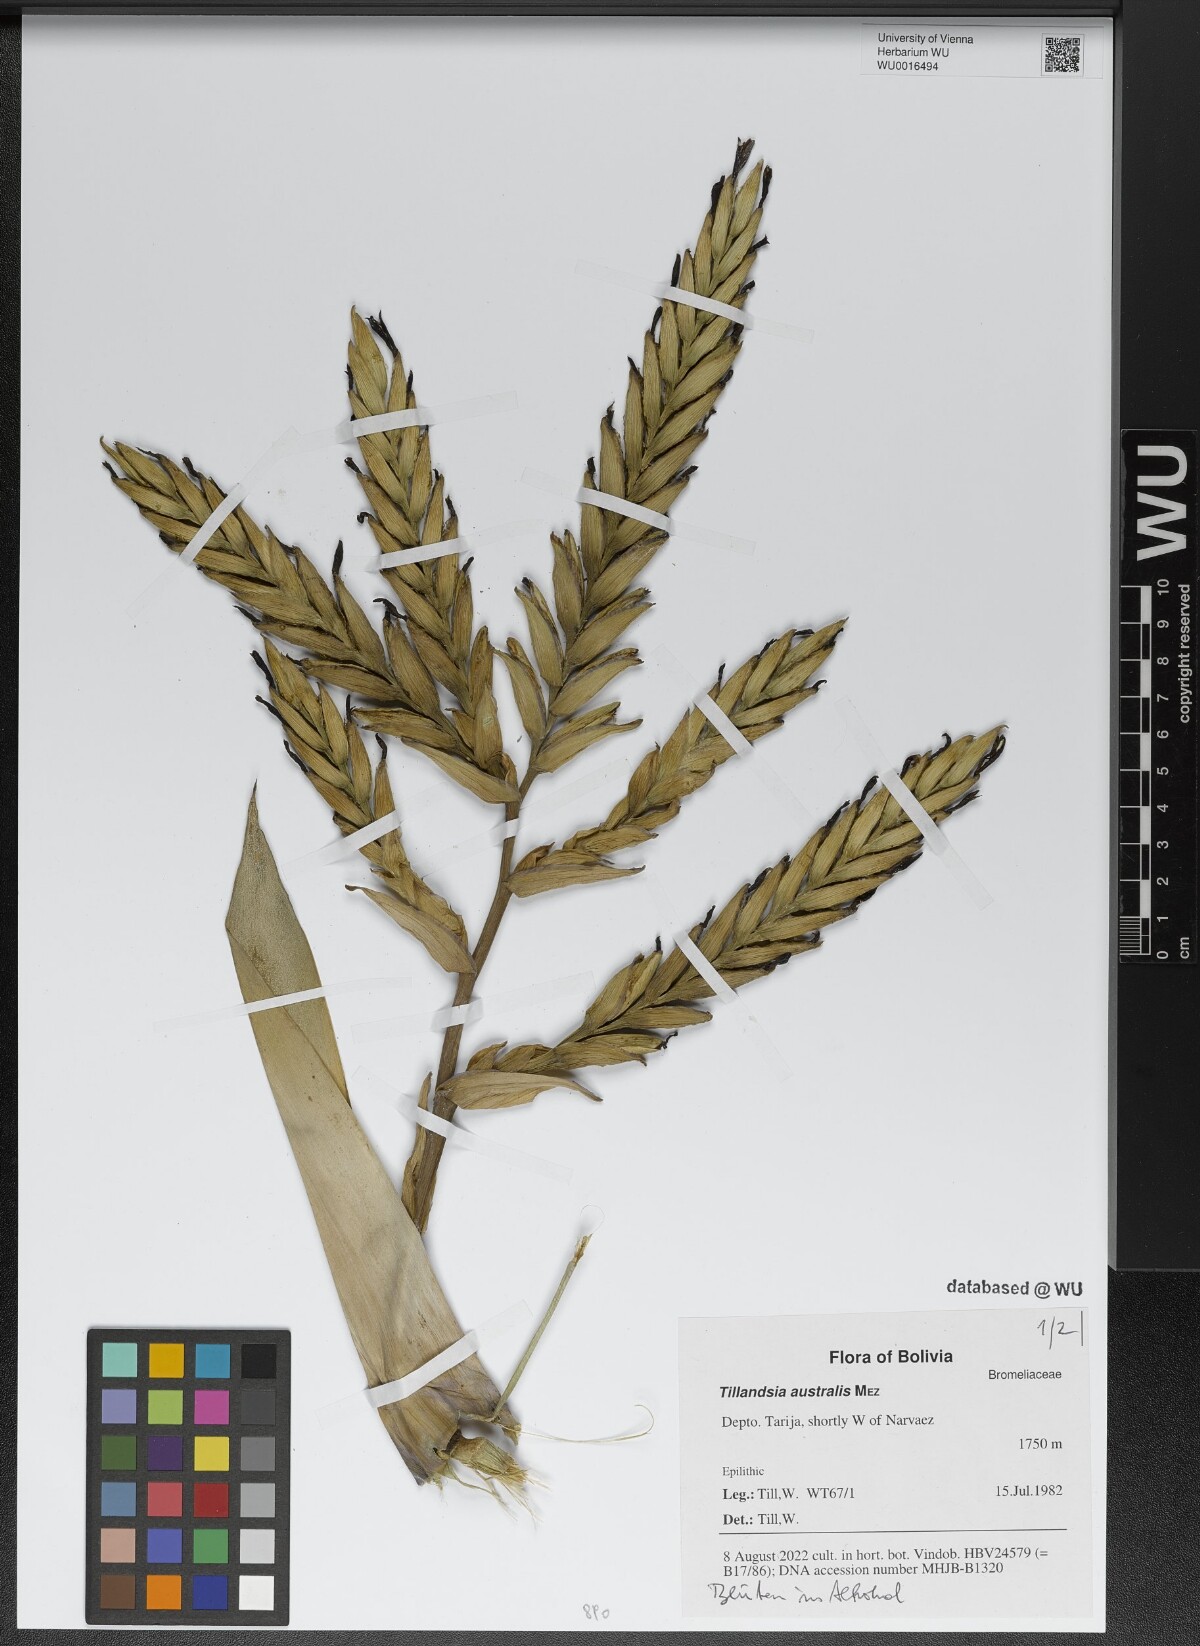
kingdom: Plantae
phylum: Tracheophyta
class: Liliopsida
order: Poales
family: Bromeliaceae
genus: Tillandsia
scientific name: Tillandsia australis
